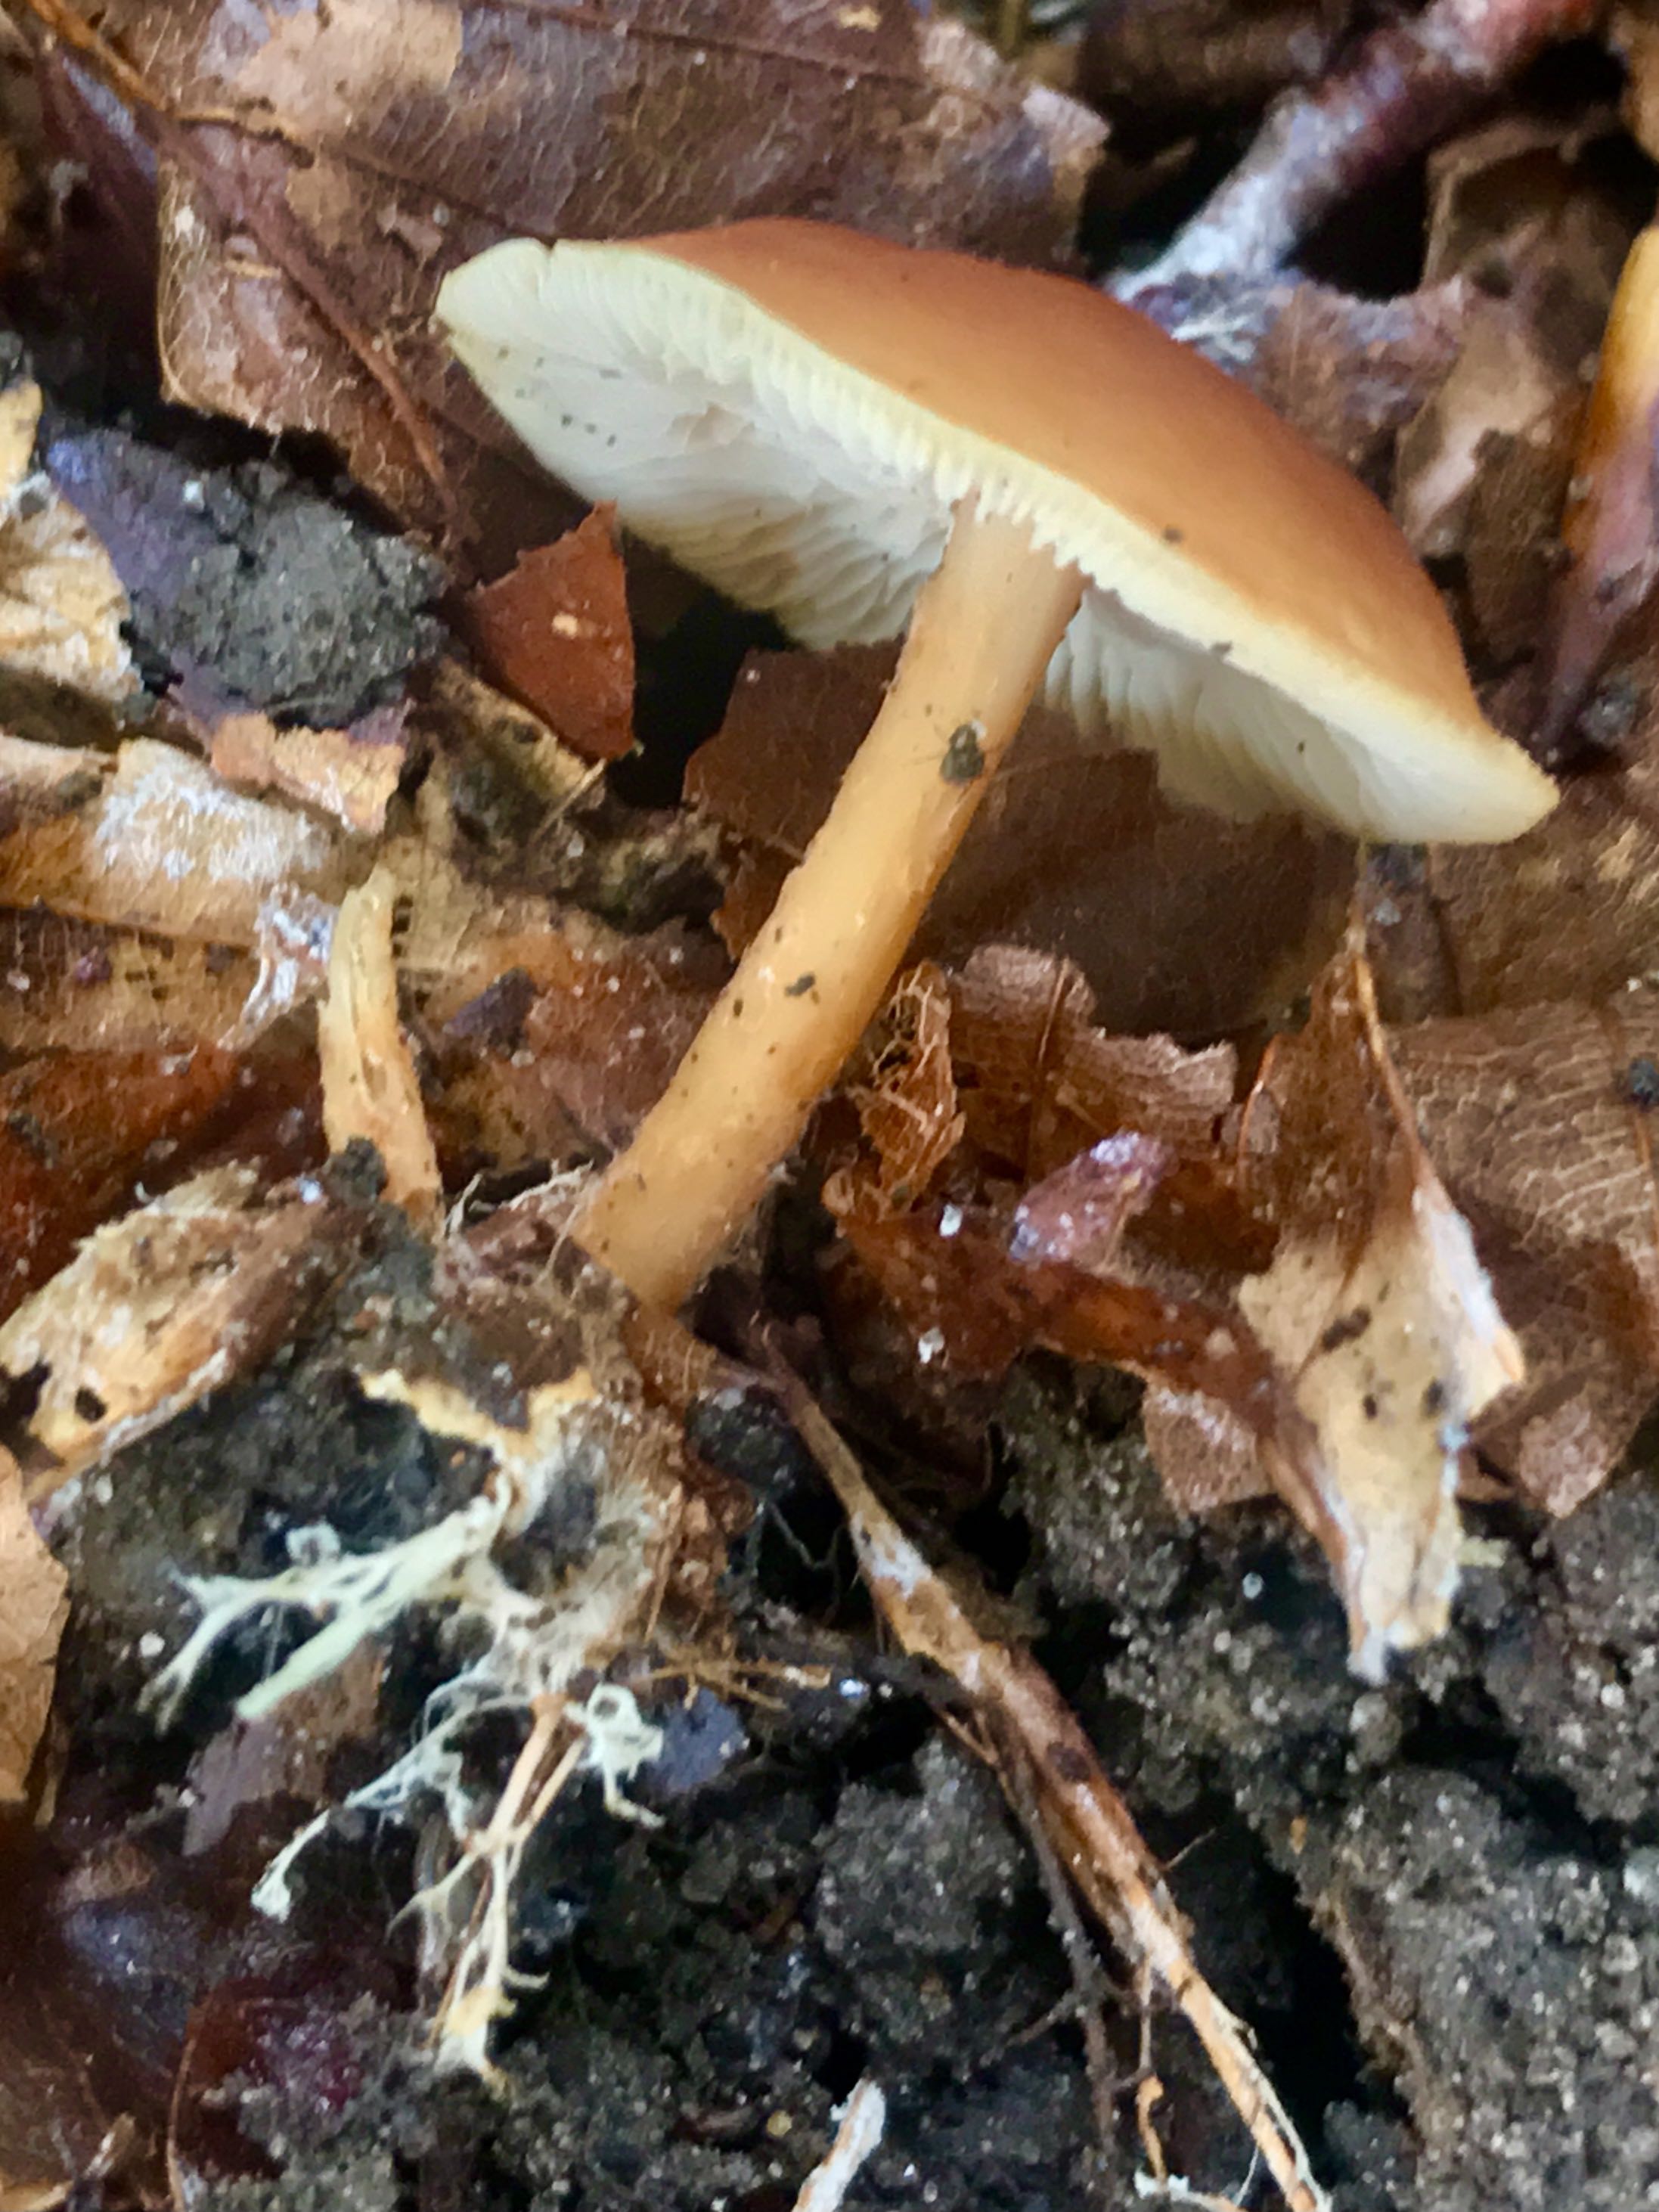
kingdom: Fungi
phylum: Basidiomycota
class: Agaricomycetes
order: Agaricales
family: Omphalotaceae
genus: Gymnopus
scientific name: Gymnopus dryophilus
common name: løv-fladhat
